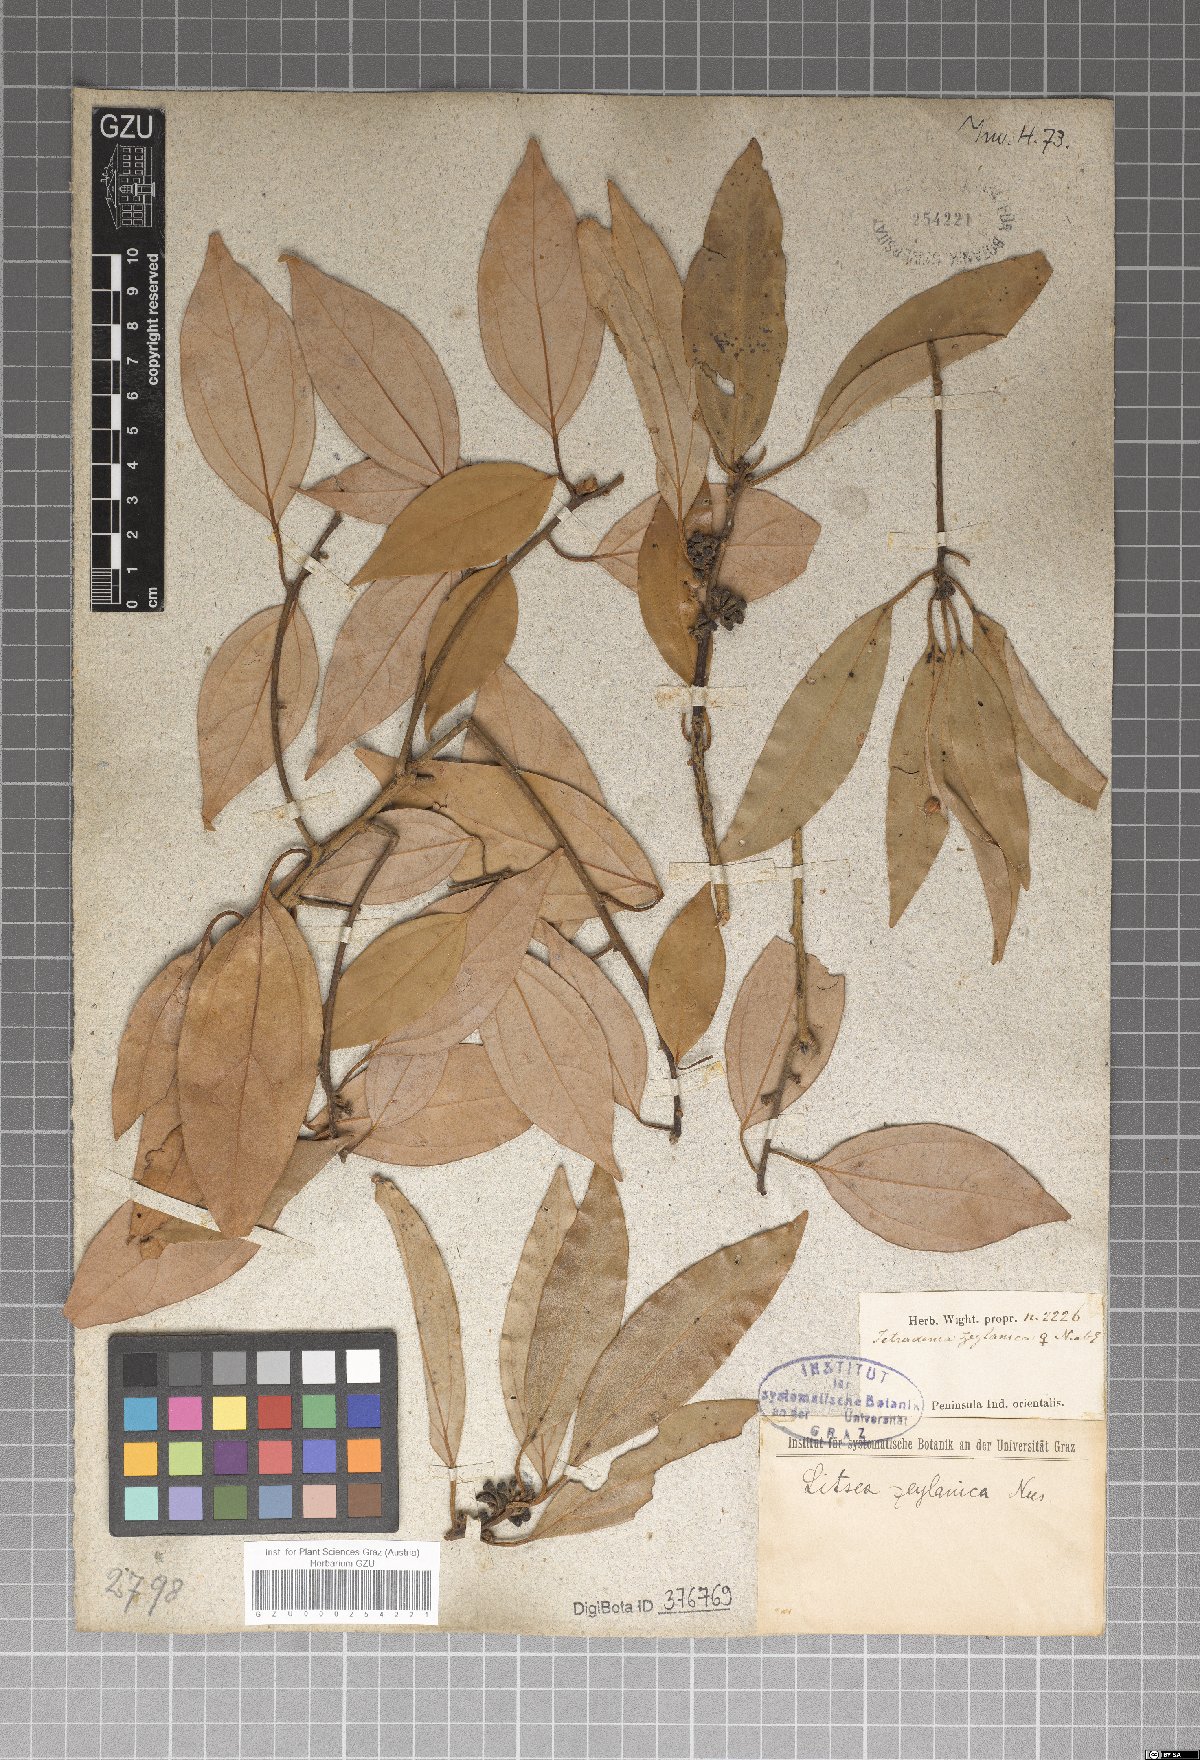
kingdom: Plantae
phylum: Tracheophyta
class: Magnoliopsida
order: Laurales
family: Lauraceae
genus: Neolitsea
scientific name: Neolitsea cassia
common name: Laurel
